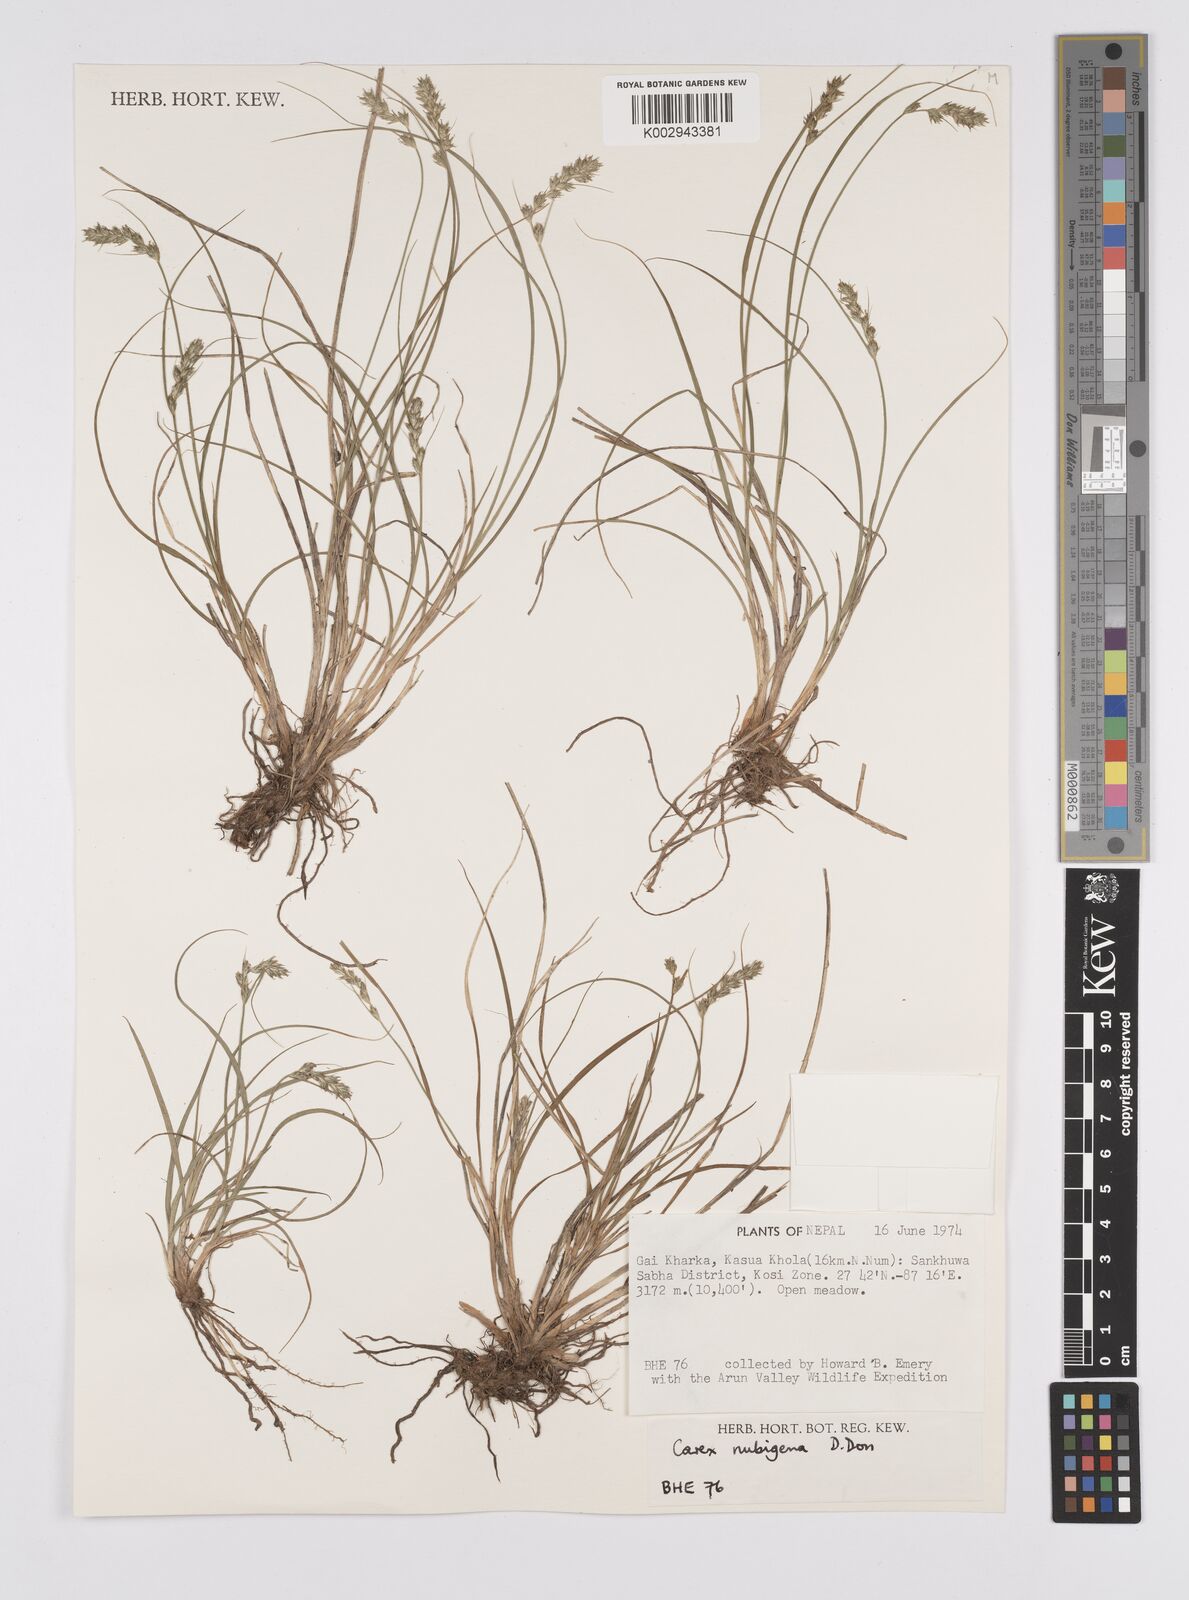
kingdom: Plantae
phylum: Tracheophyta
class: Liliopsida
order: Poales
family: Cyperaceae
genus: Carex
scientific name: Carex nubigena
